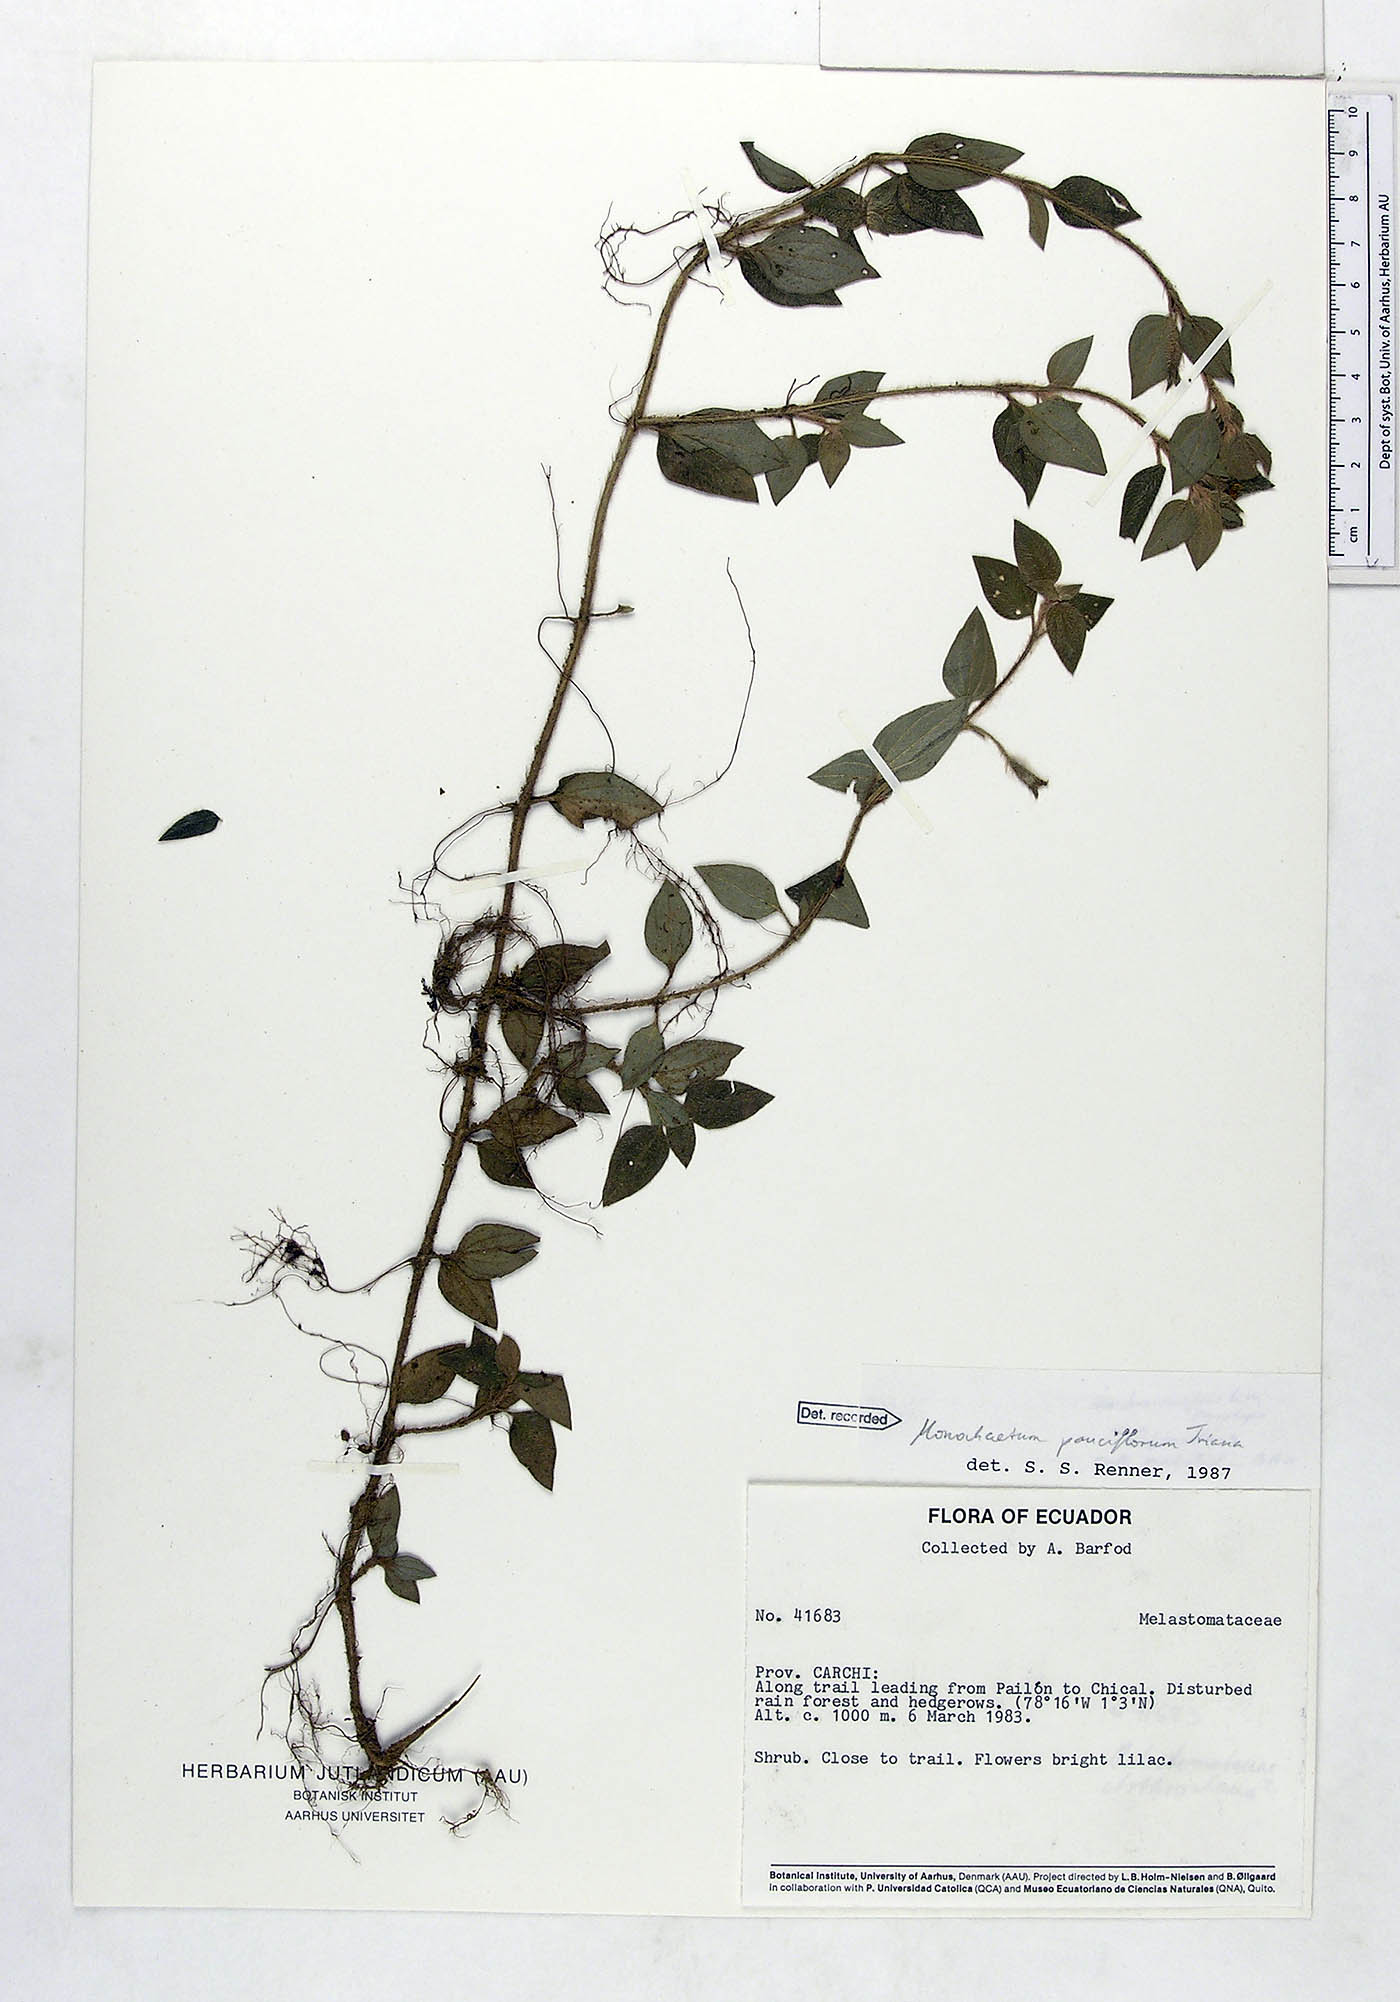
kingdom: Plantae
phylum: Tracheophyta
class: Magnoliopsida
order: Myrtales
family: Melastomataceae
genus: Monochaetum
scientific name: Monochaetum glanduliferum
